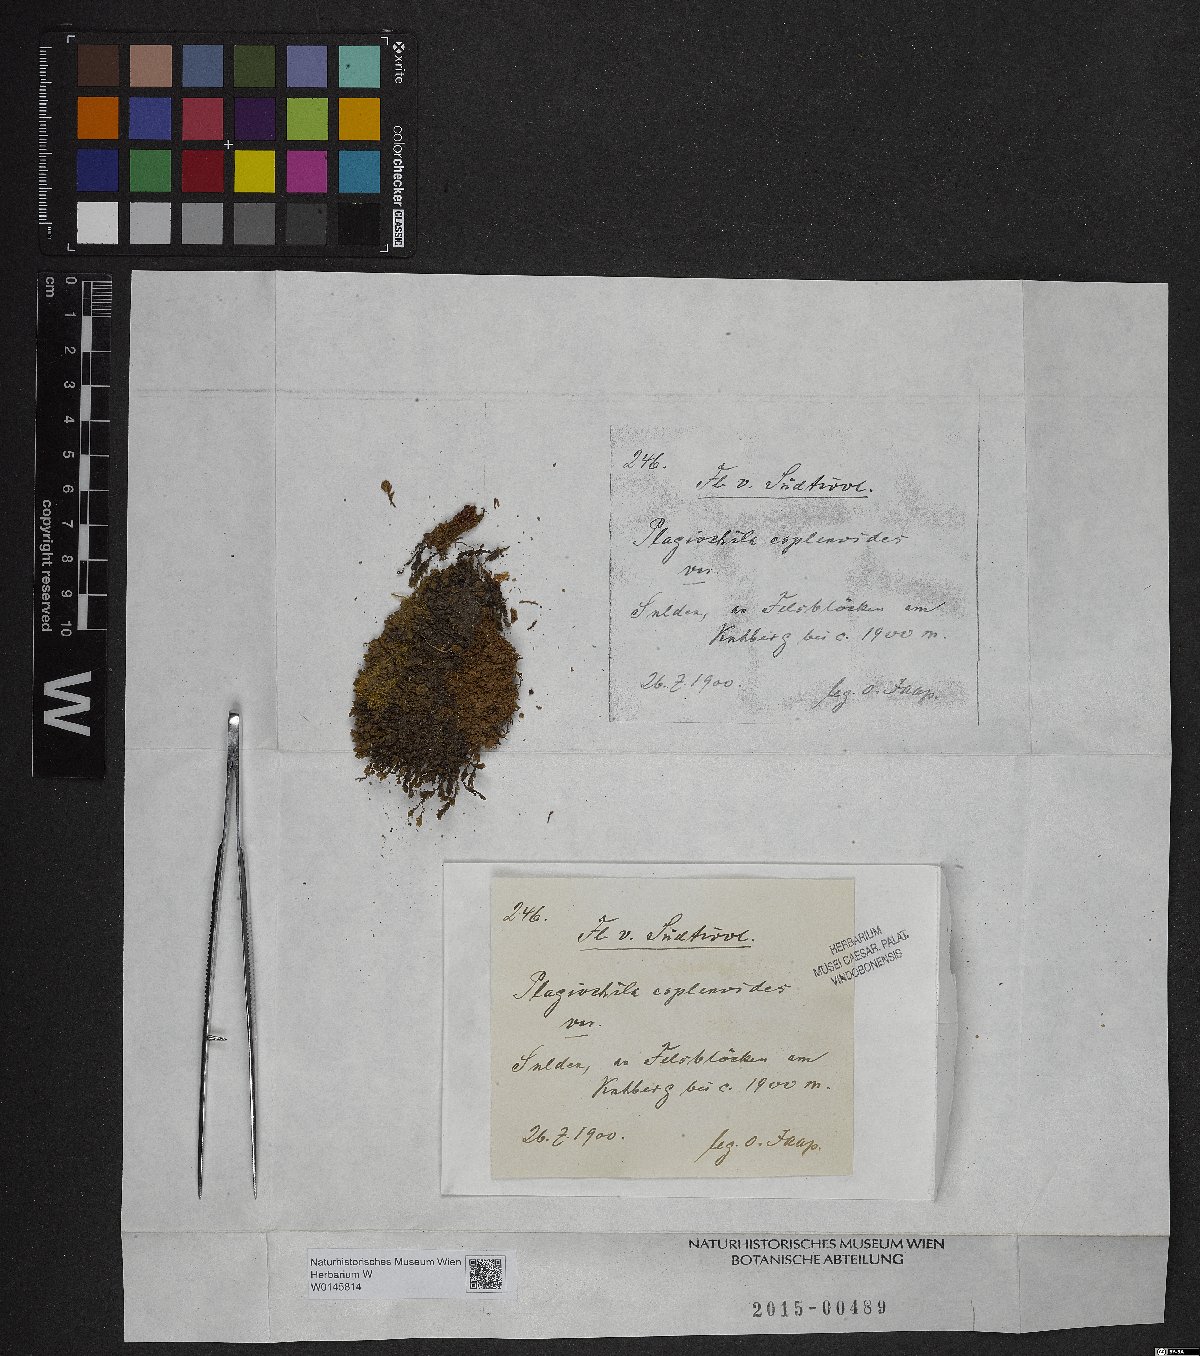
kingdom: Plantae
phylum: Marchantiophyta
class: Jungermanniopsida
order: Jungermanniales
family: Plagiochilaceae
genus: Plagiochila
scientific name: Plagiochila asplenioides
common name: Greater featherwort
